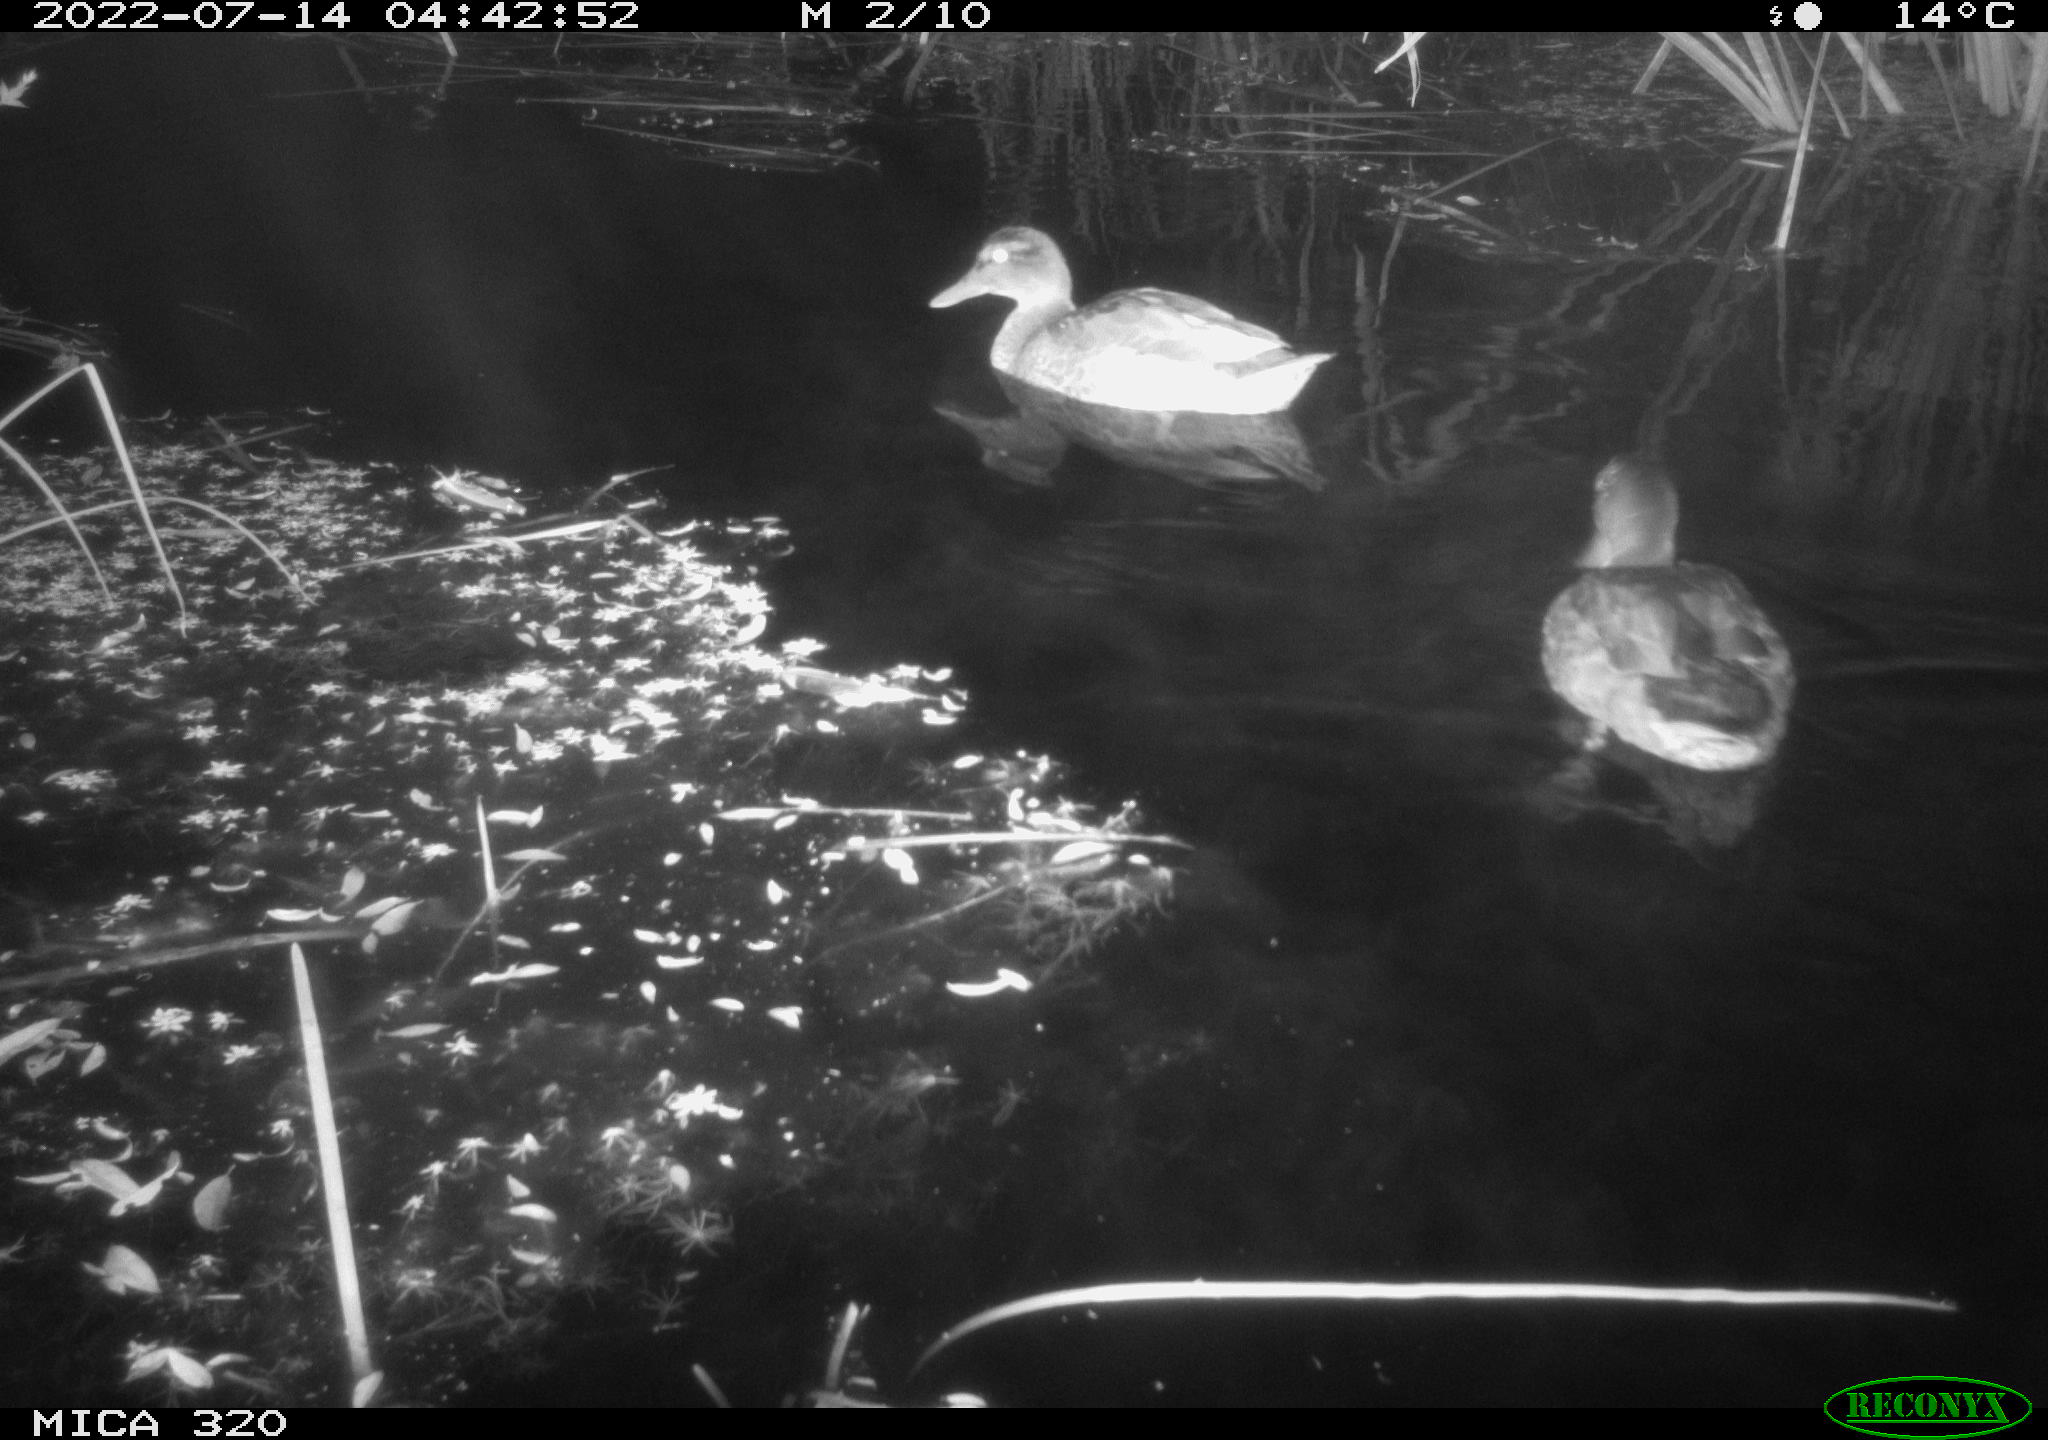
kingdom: Animalia
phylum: Chordata
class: Aves
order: Anseriformes
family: Anatidae
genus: Mareca
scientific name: Mareca strepera
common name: Gadwall
